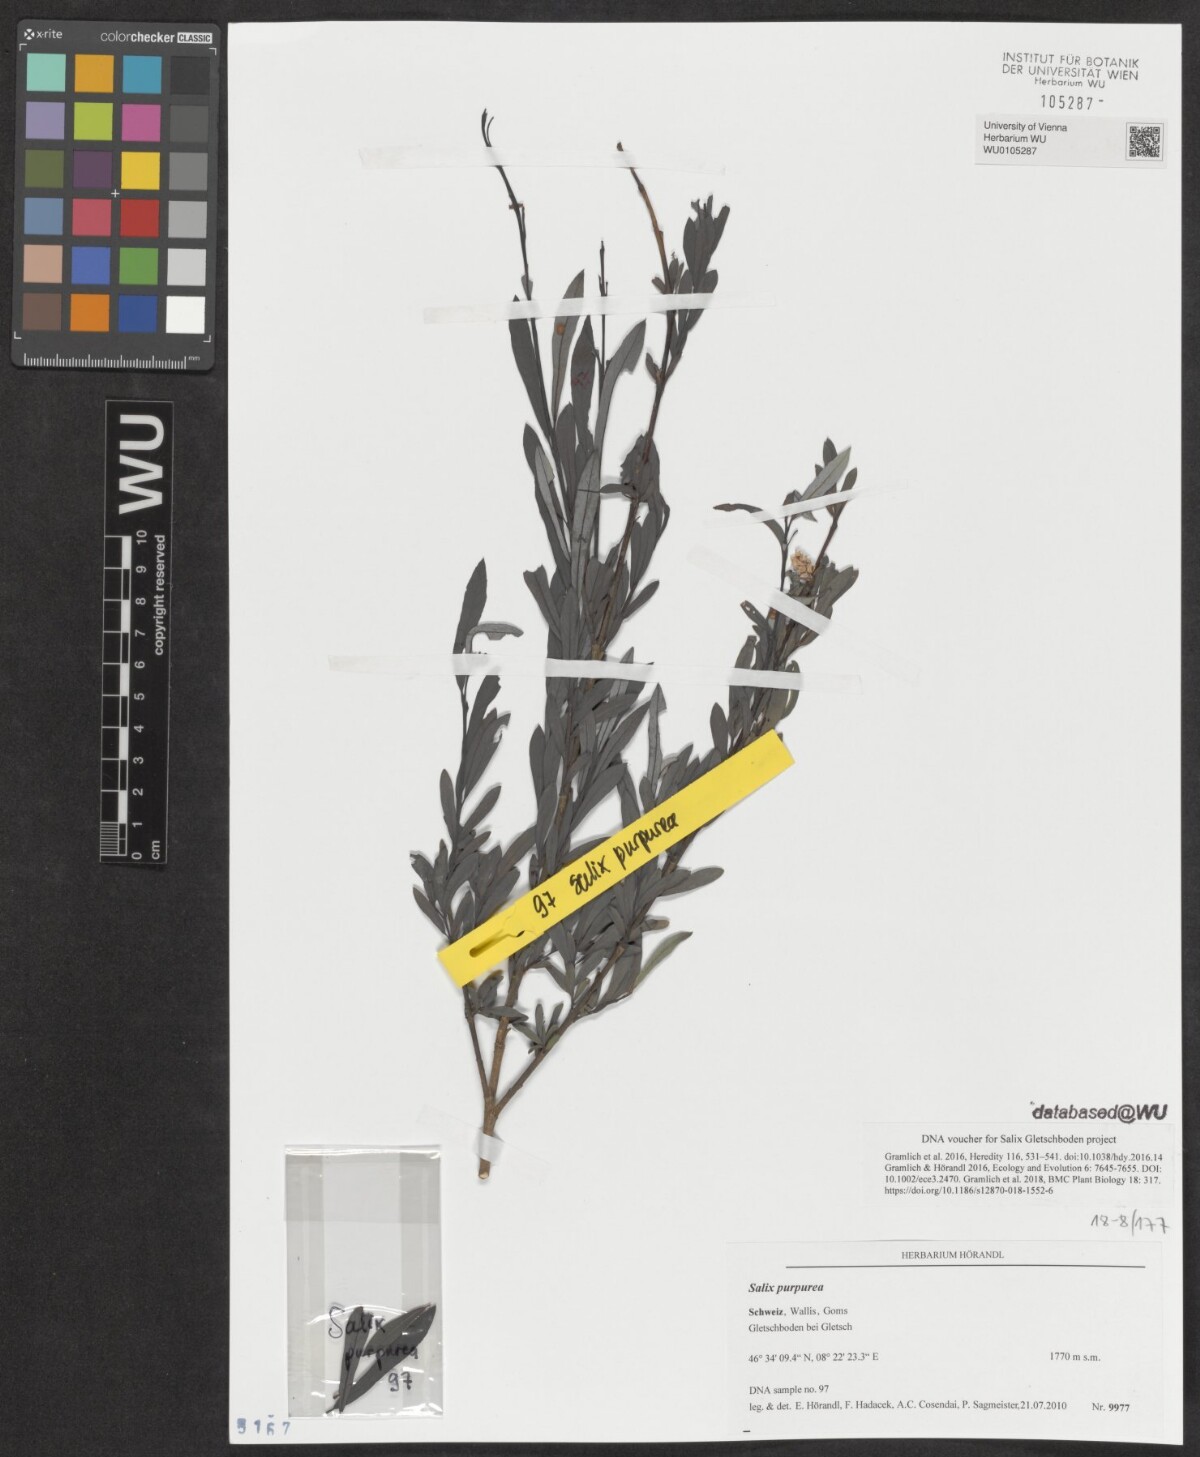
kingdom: Plantae
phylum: Tracheophyta
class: Magnoliopsida
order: Malpighiales
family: Salicaceae
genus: Salix
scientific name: Salix purpurea
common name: Purple willow
